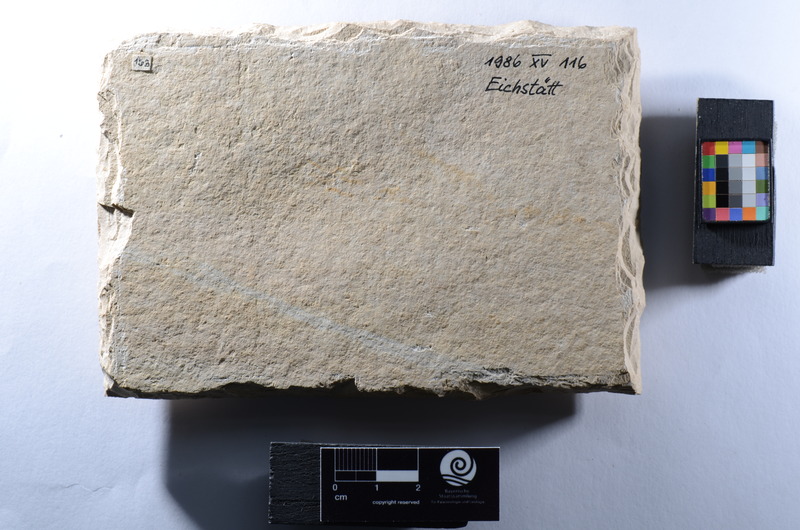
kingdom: Animalia
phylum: Chordata
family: Macrosemiidae
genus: Macrosemius
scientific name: Macrosemius rostratus
